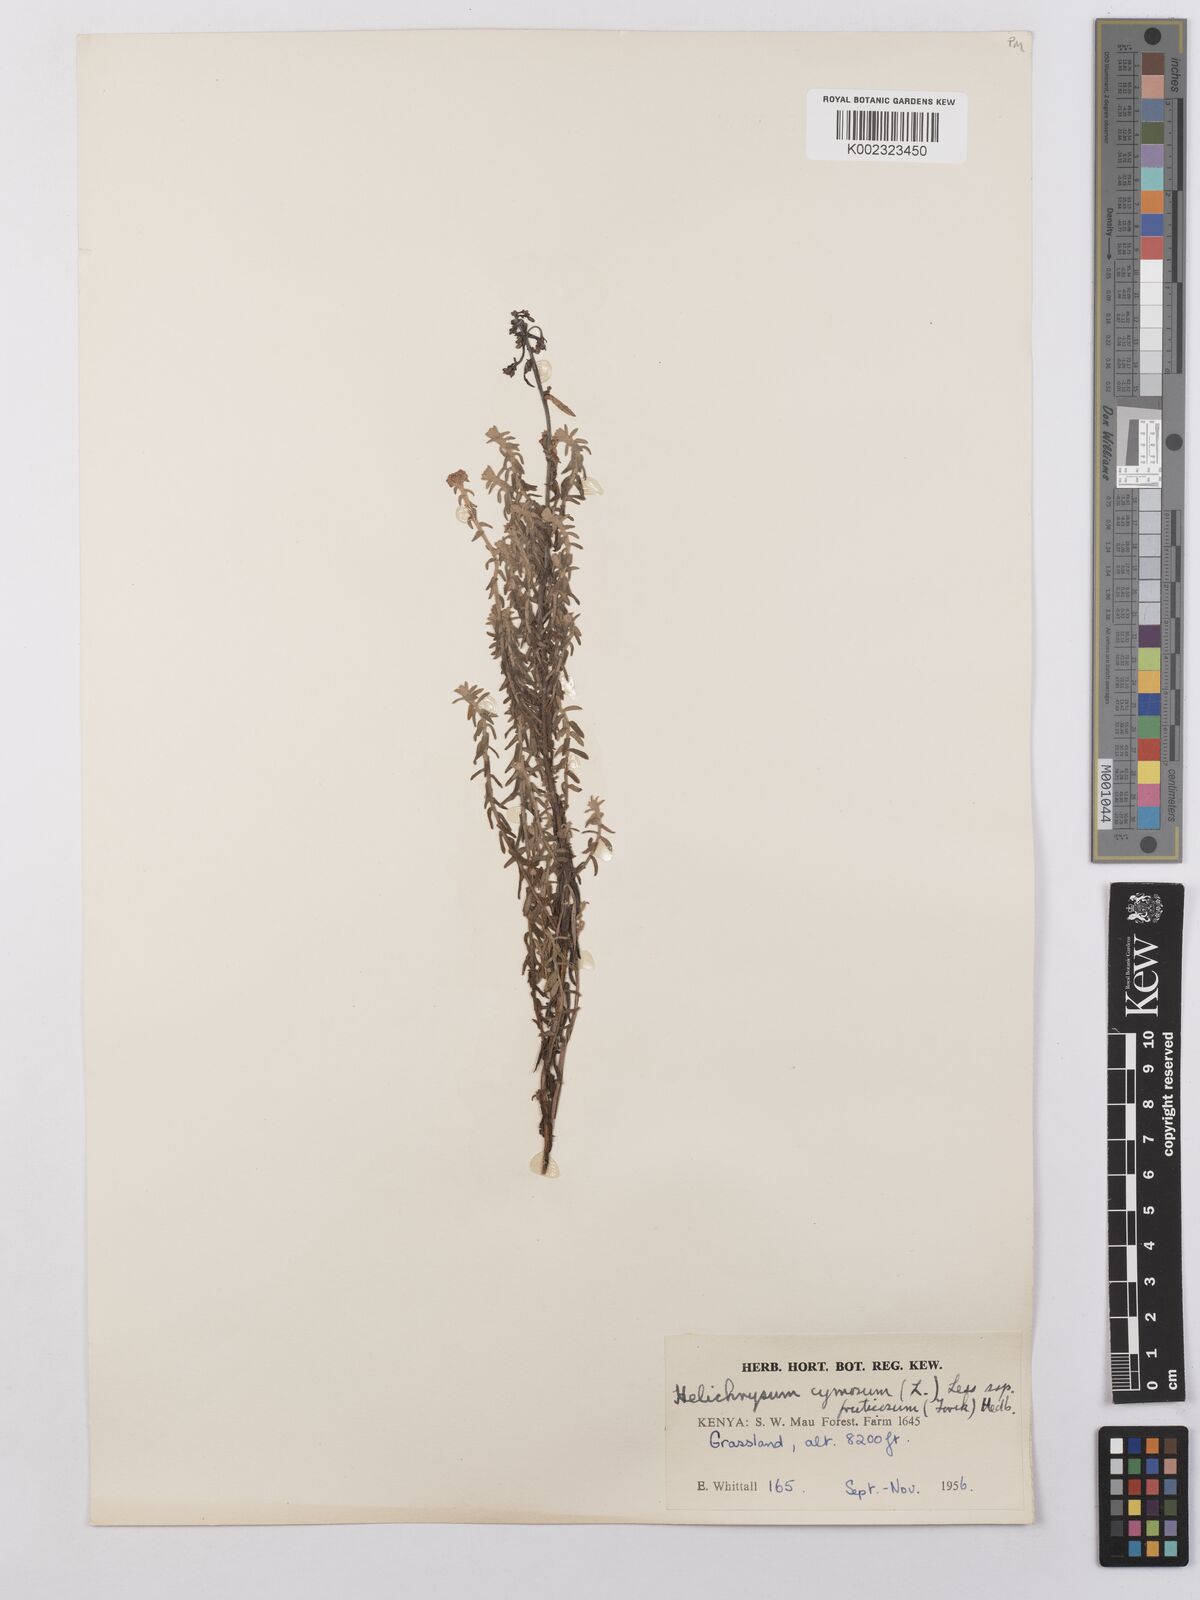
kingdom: Plantae
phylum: Tracheophyta
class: Magnoliopsida
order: Asterales
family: Asteraceae
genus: Helichrysum
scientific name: Helichrysum forskahlii
